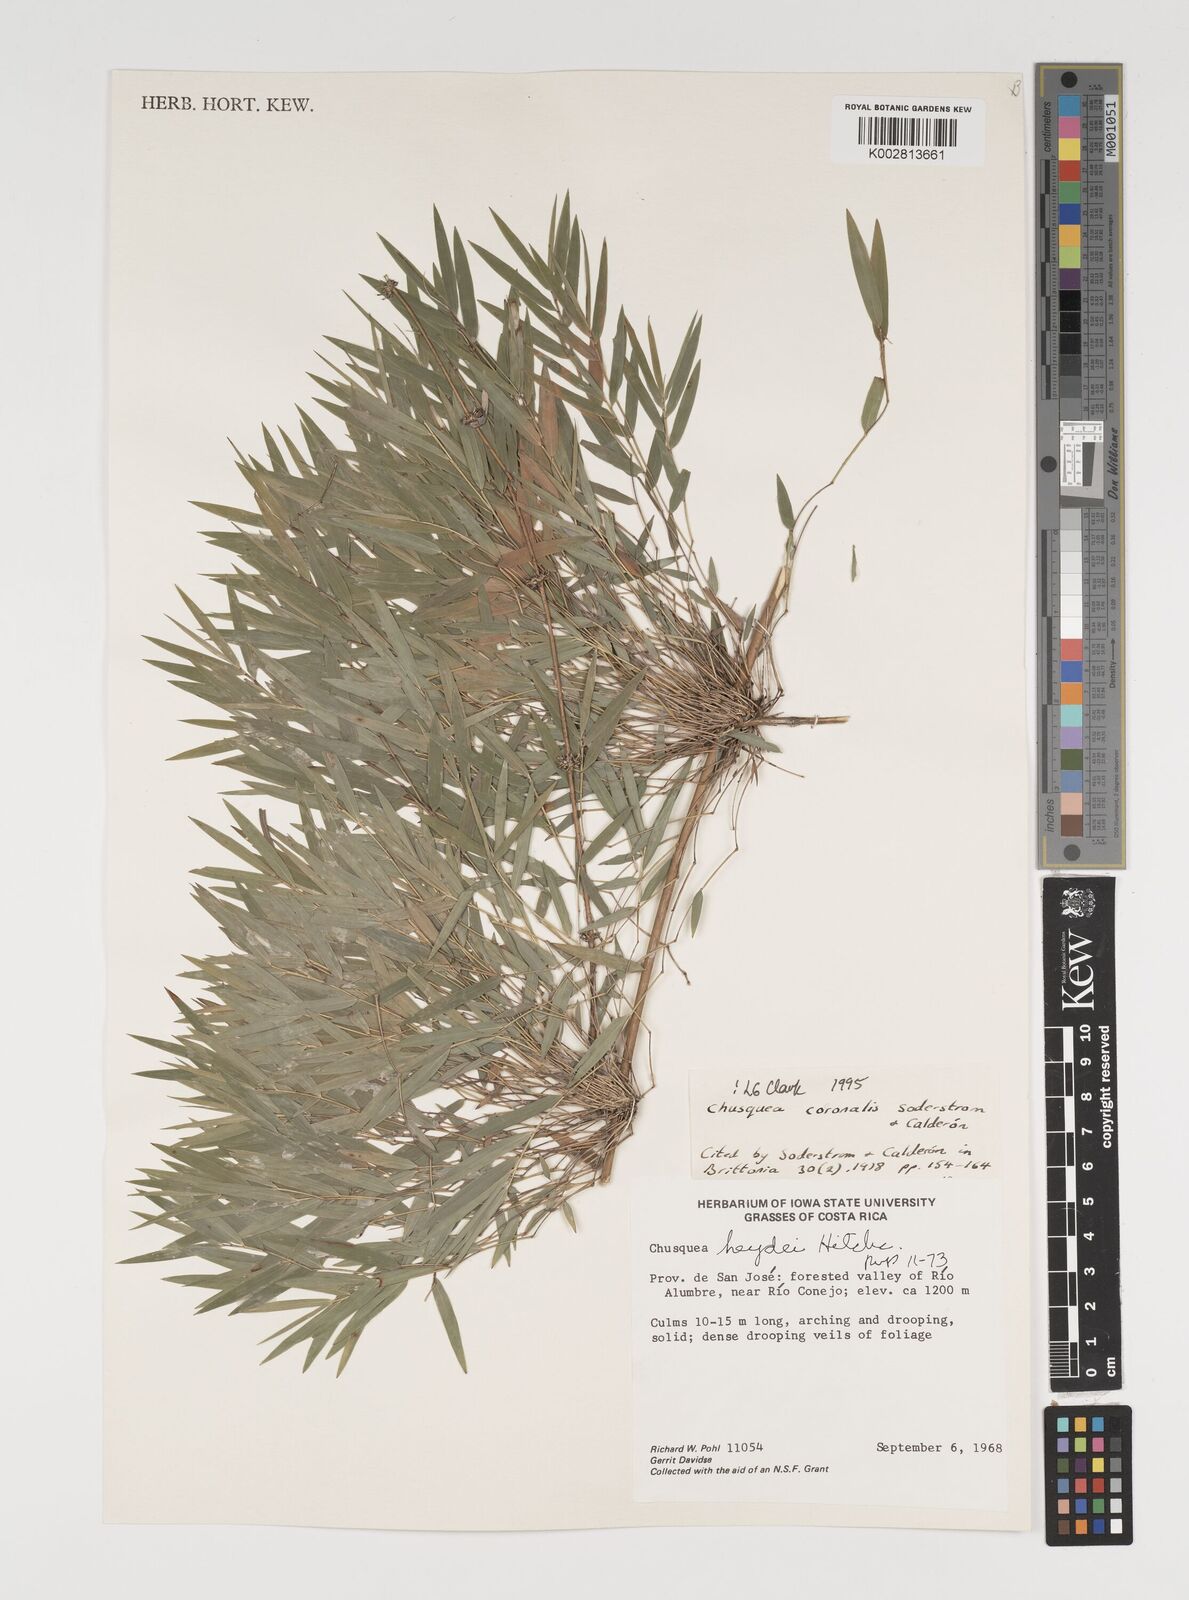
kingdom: Plantae
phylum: Tracheophyta
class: Liliopsida
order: Poales
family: Poaceae
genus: Chusquea
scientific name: Chusquea coronalis
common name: Machris bamboo
